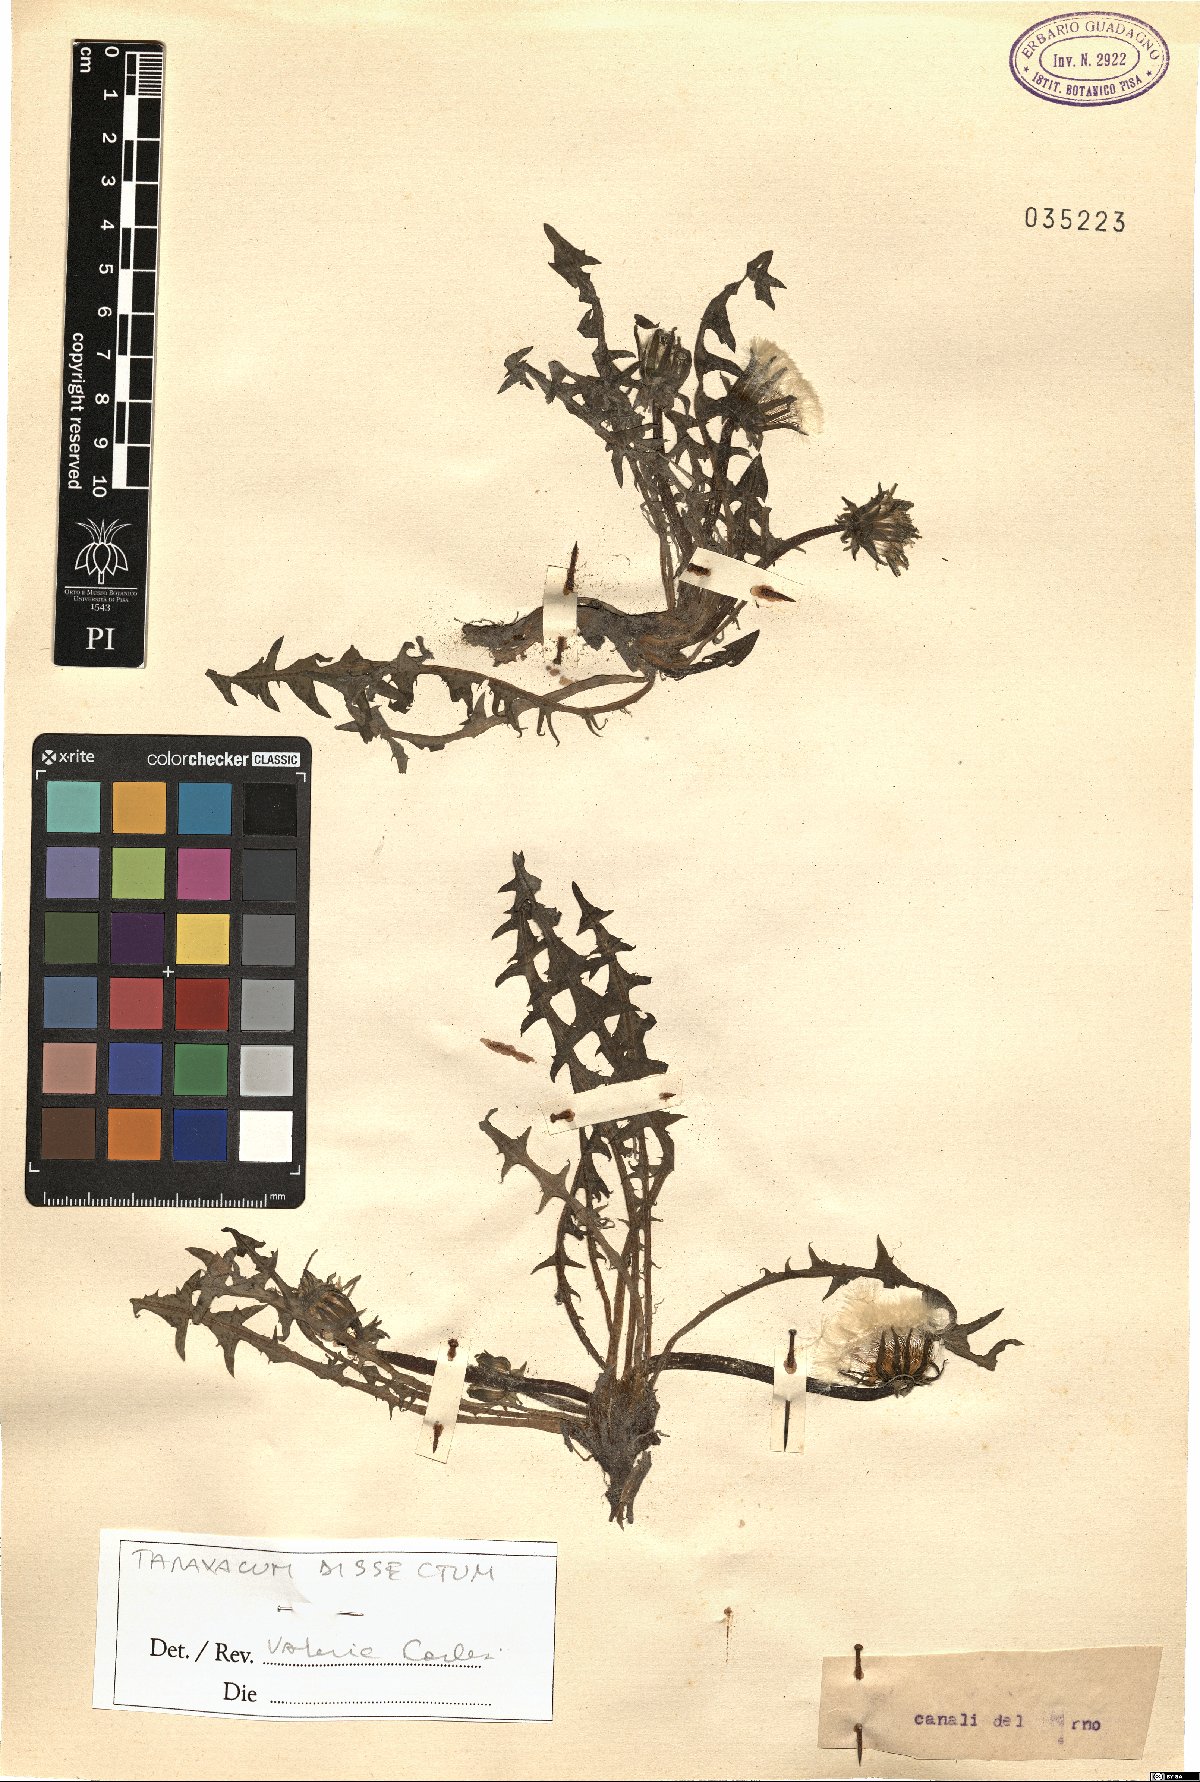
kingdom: Plantae
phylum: Tracheophyta
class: Magnoliopsida
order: Asterales
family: Asteraceae
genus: Taraxacum
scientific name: Taraxacum dissectum
